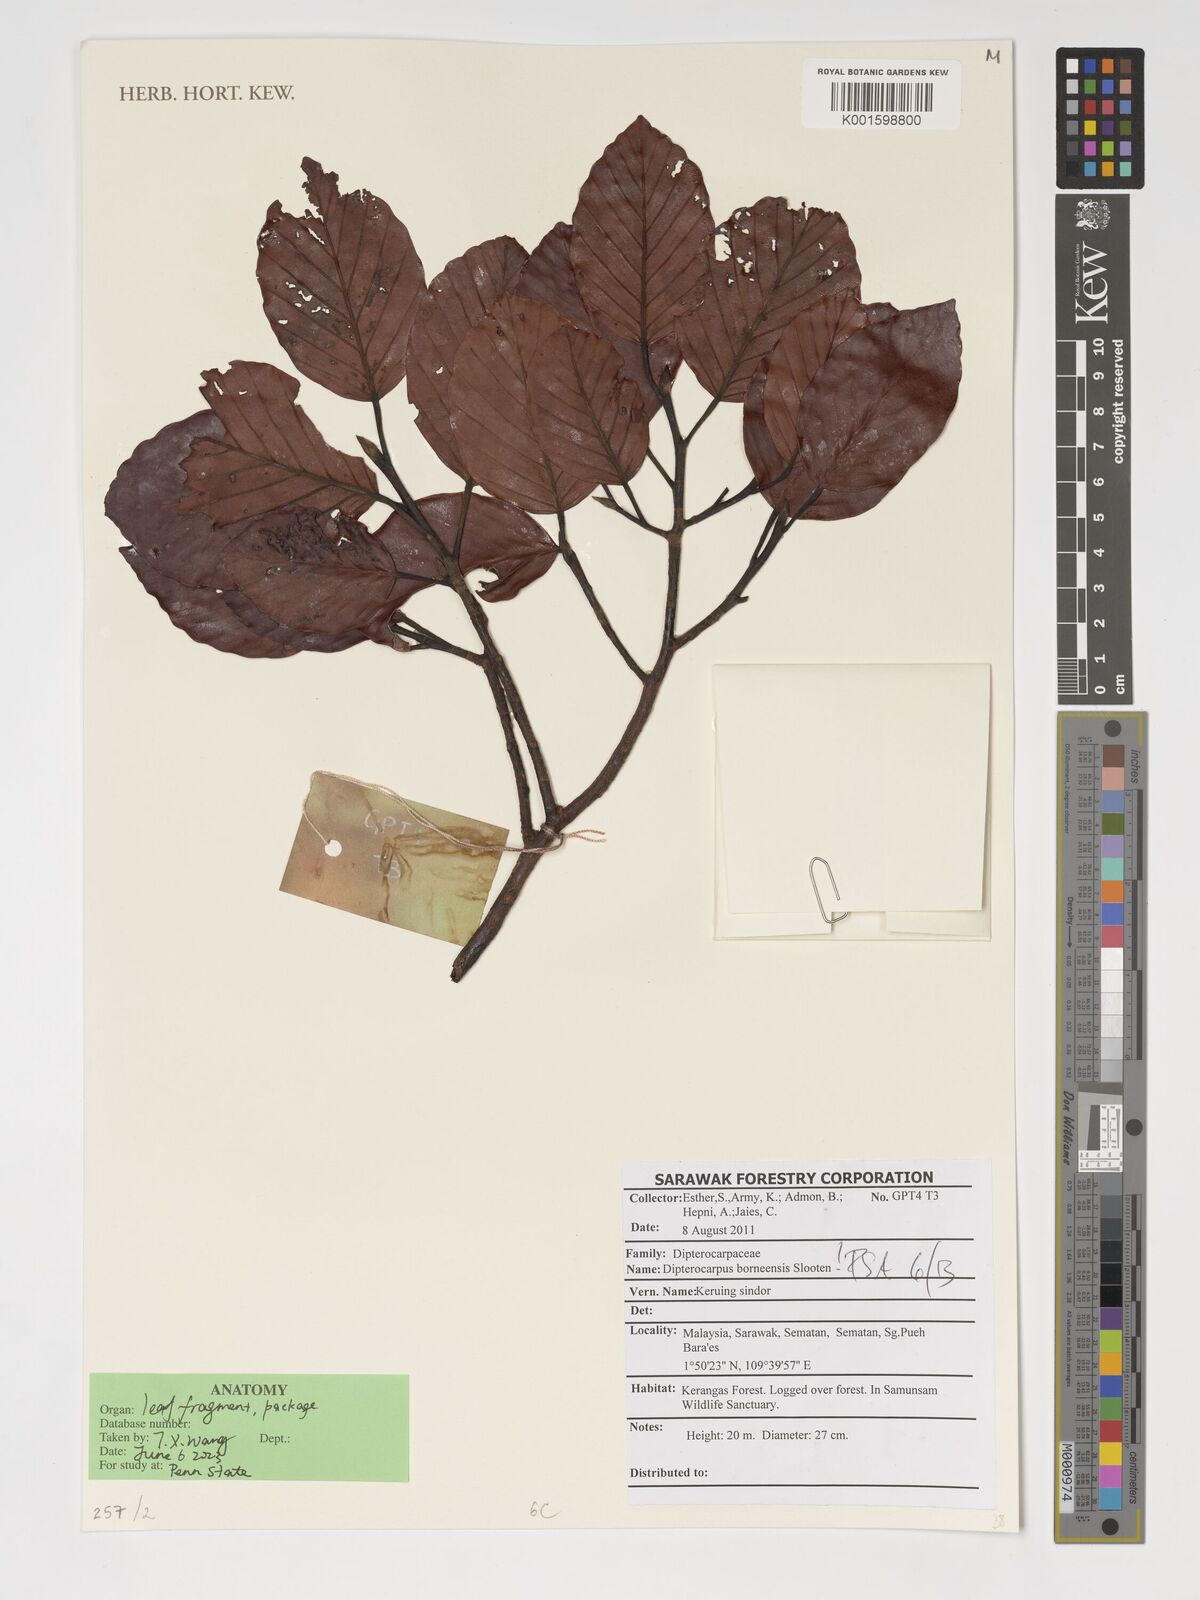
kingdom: Plantae
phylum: Tracheophyta
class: Magnoliopsida
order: Malvales
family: Dipterocarpaceae
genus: Dipterocarpus
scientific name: Dipterocarpus borneensis
